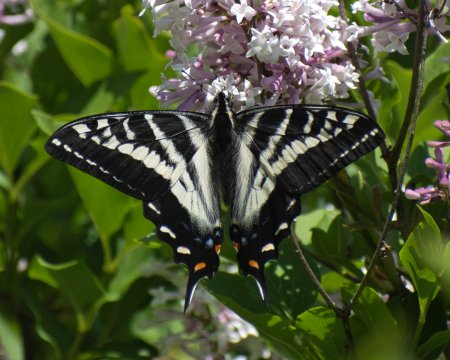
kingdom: Animalia
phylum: Arthropoda
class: Insecta
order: Lepidoptera
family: Papilionidae
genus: Pterourus
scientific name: Pterourus eurymedon
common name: Pale Swallowtail
